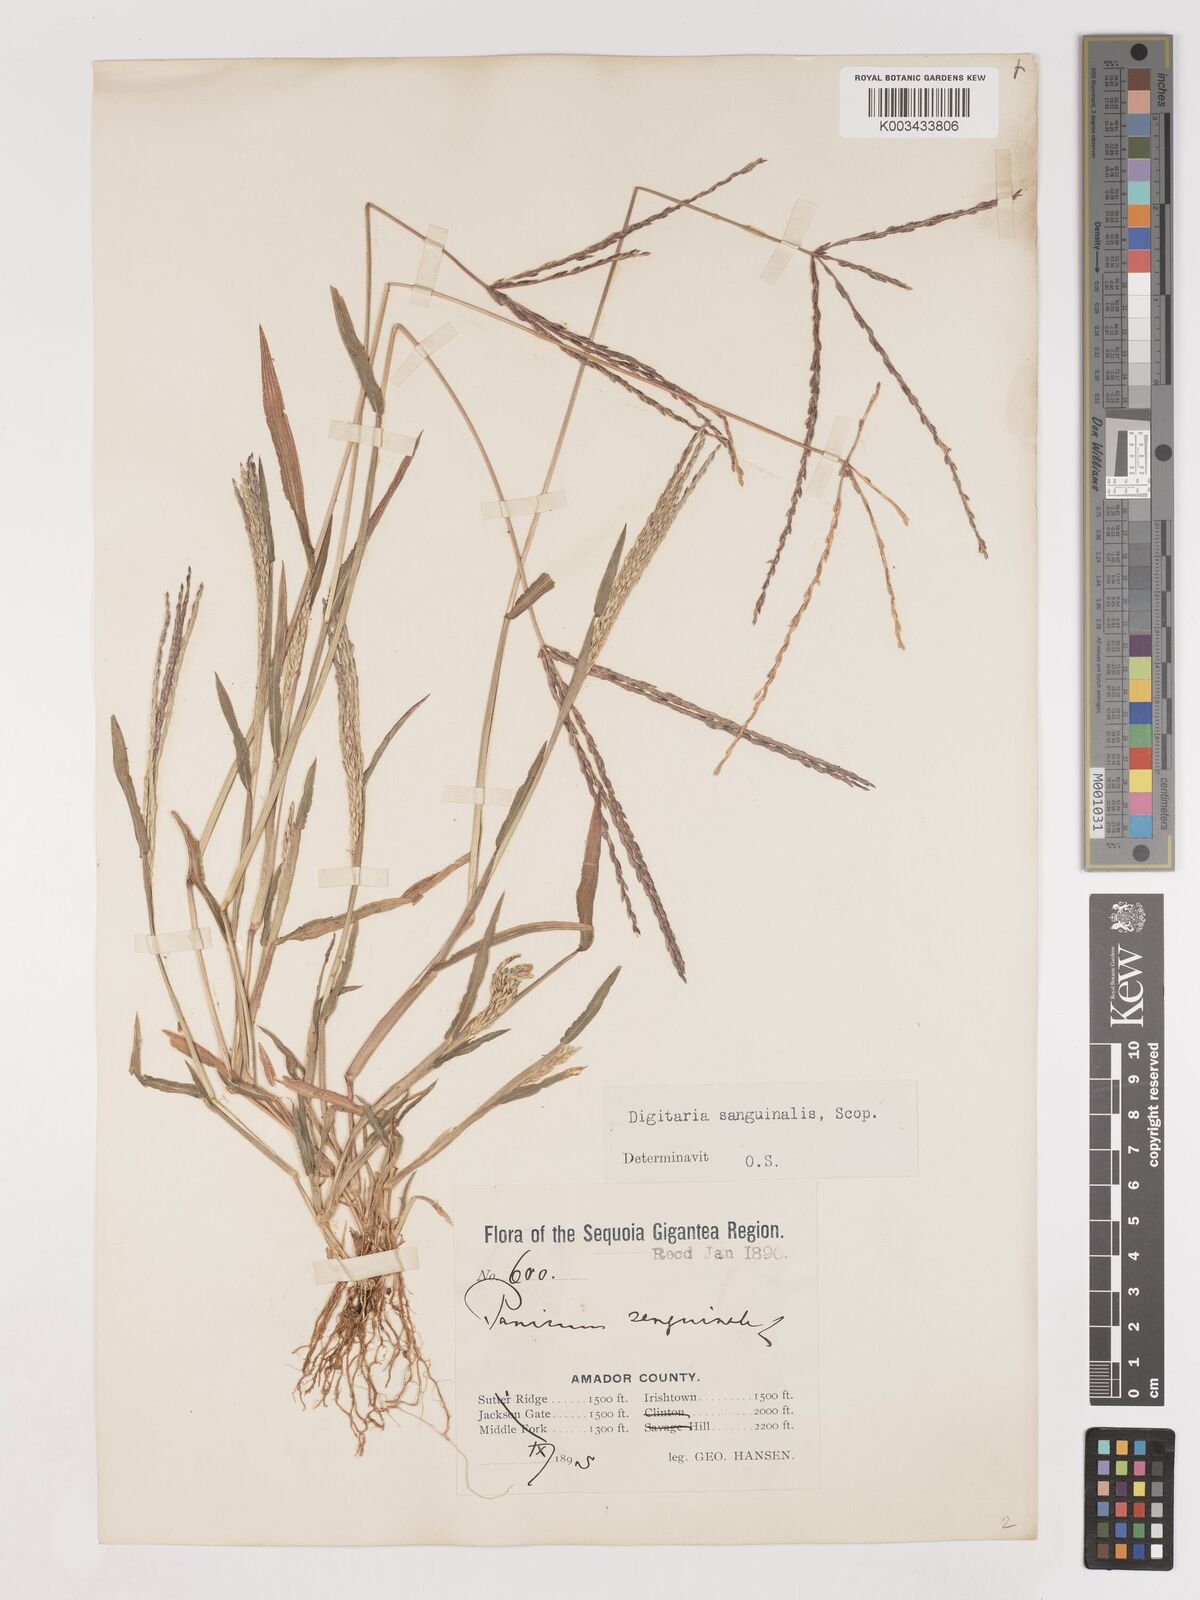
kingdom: Plantae
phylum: Tracheophyta
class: Liliopsida
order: Poales
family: Poaceae
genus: Digitaria
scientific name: Digitaria sanguinalis
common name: Hairy crabgrass
